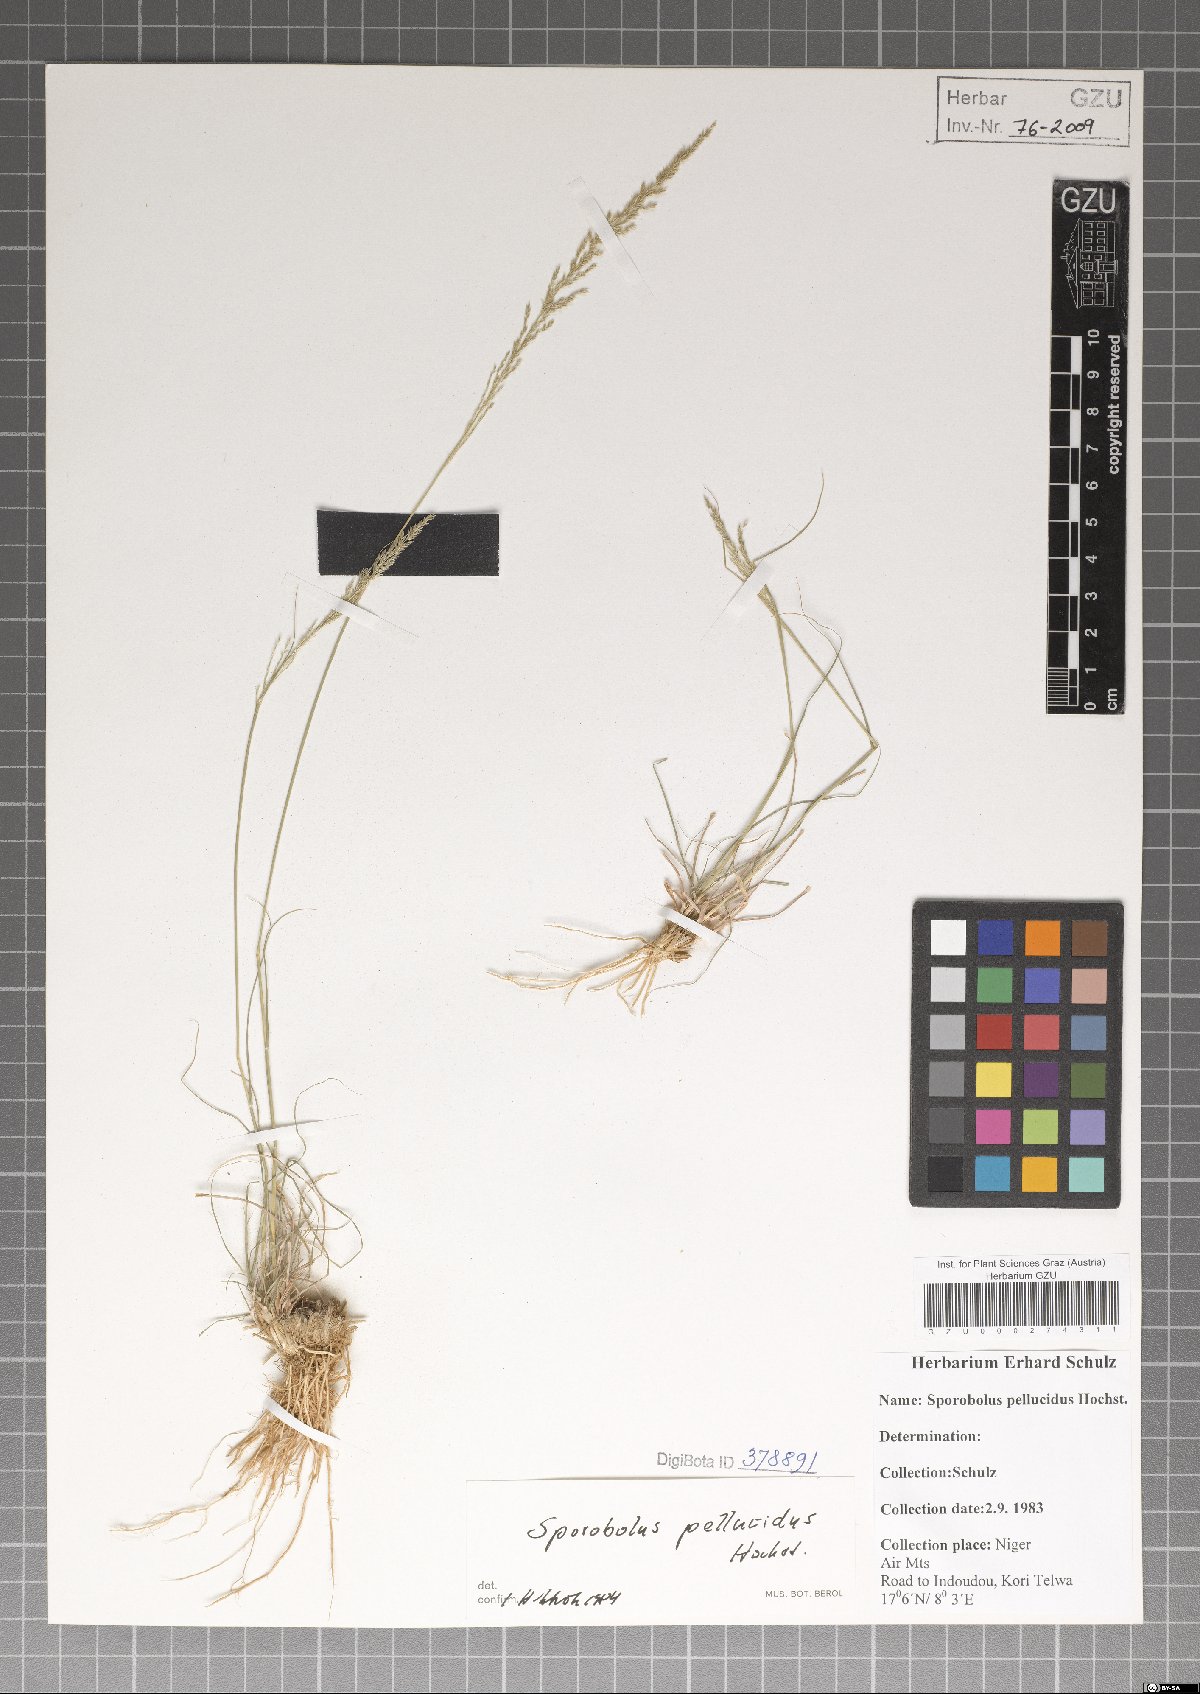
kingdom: Plantae
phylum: Tracheophyta
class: Liliopsida
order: Poales
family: Poaceae
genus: Sporobolus
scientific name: Sporobolus pellucidus
